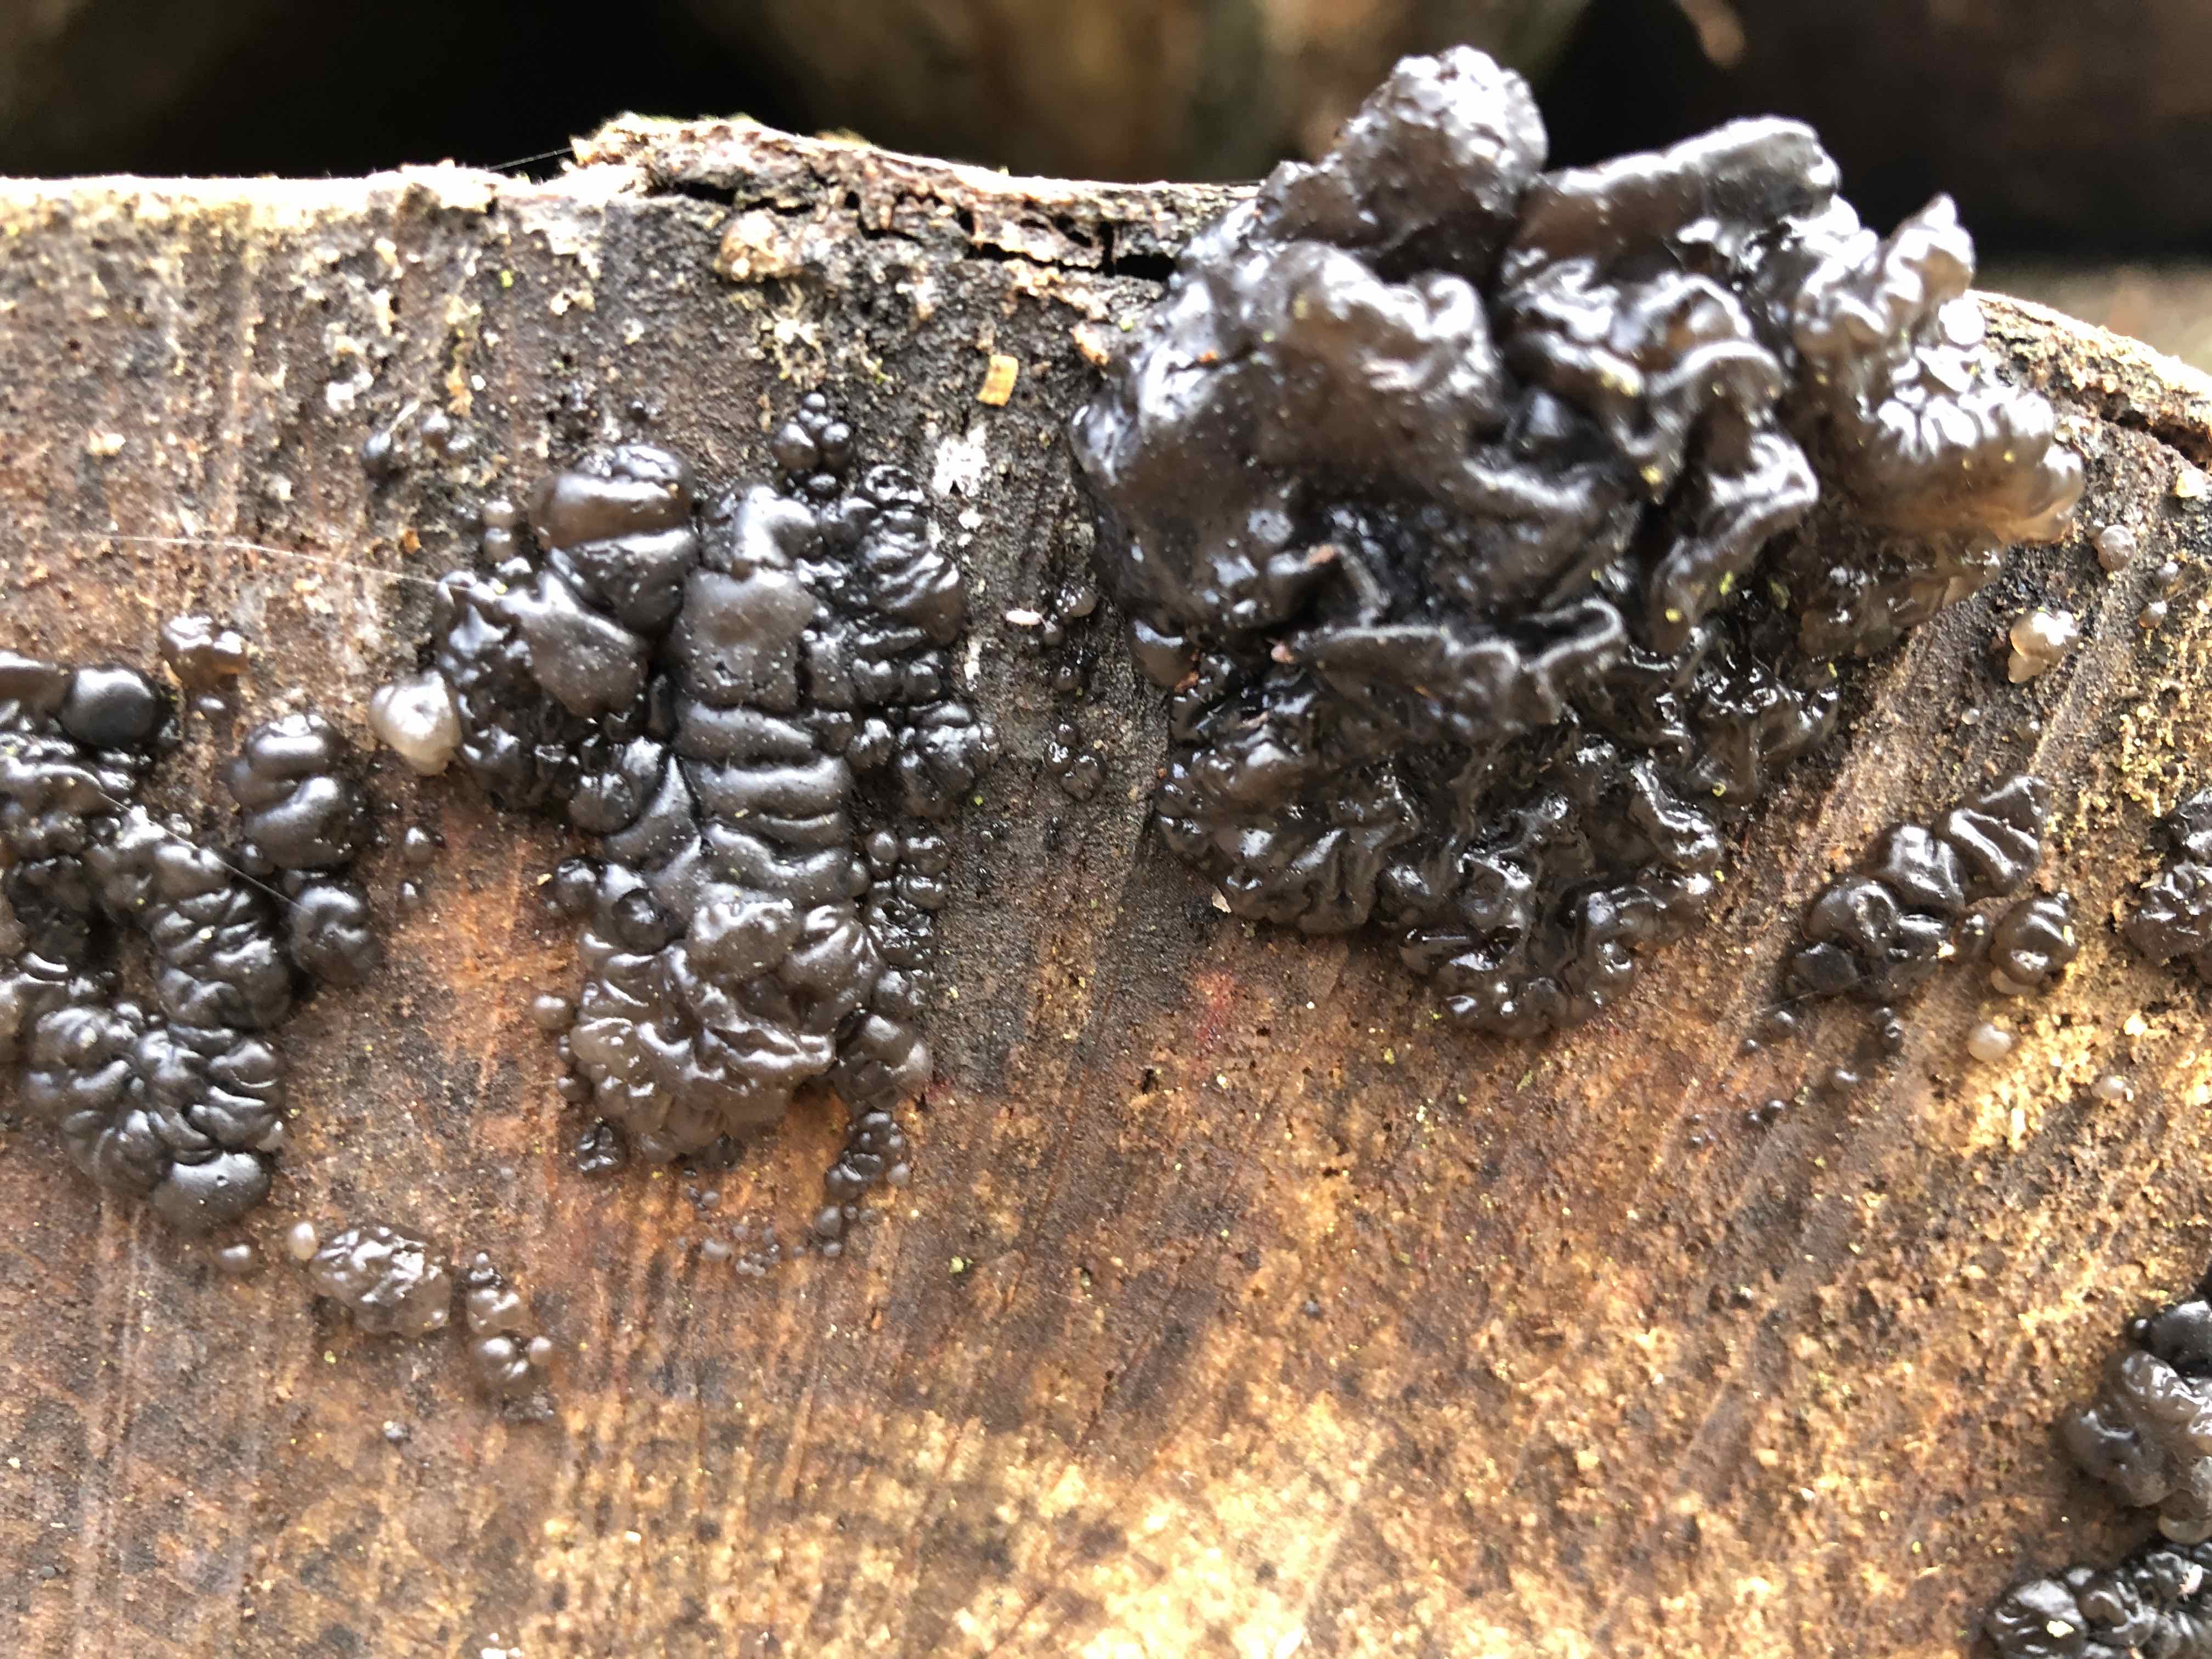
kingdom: Fungi
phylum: Basidiomycota
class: Agaricomycetes
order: Auriculariales
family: Auriculariaceae
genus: Exidia
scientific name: Exidia nigricans
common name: almindelig bævretop
